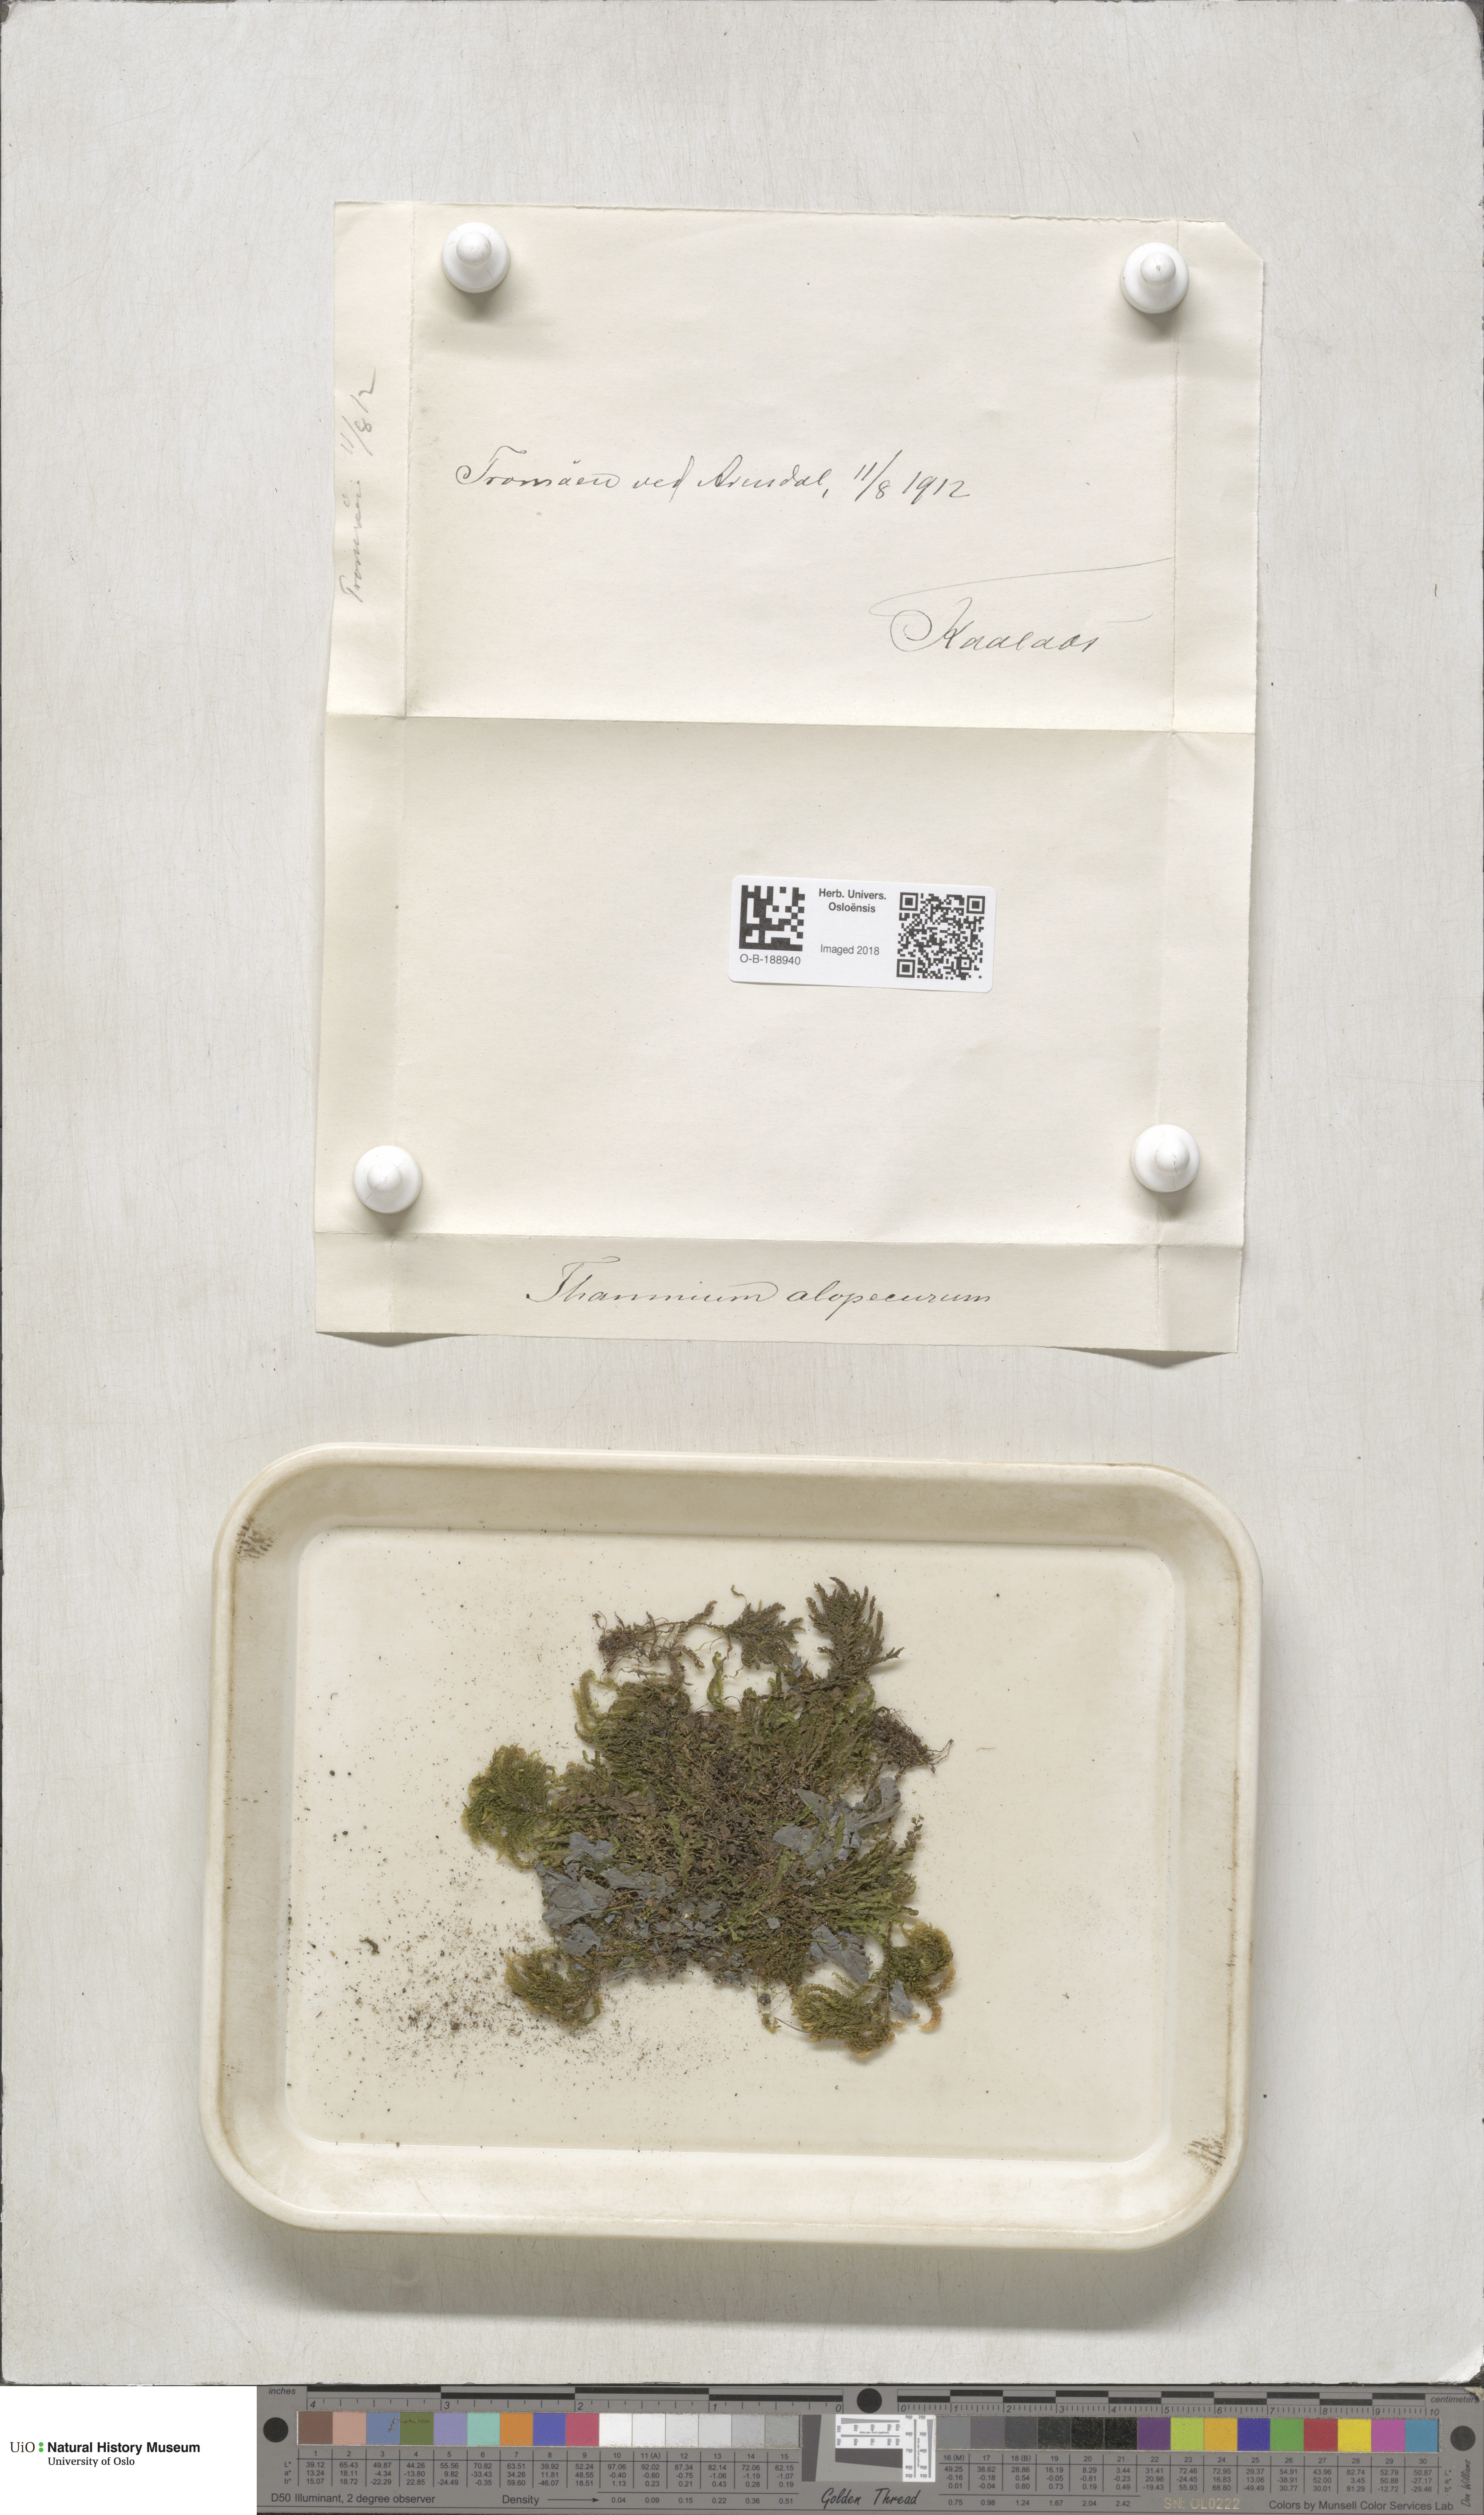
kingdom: Plantae
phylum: Bryophyta
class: Bryopsida
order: Hypnales
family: Neckeraceae
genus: Thamnobryum
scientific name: Thamnobryum alopecurum
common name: Fox-tail feather-moss
